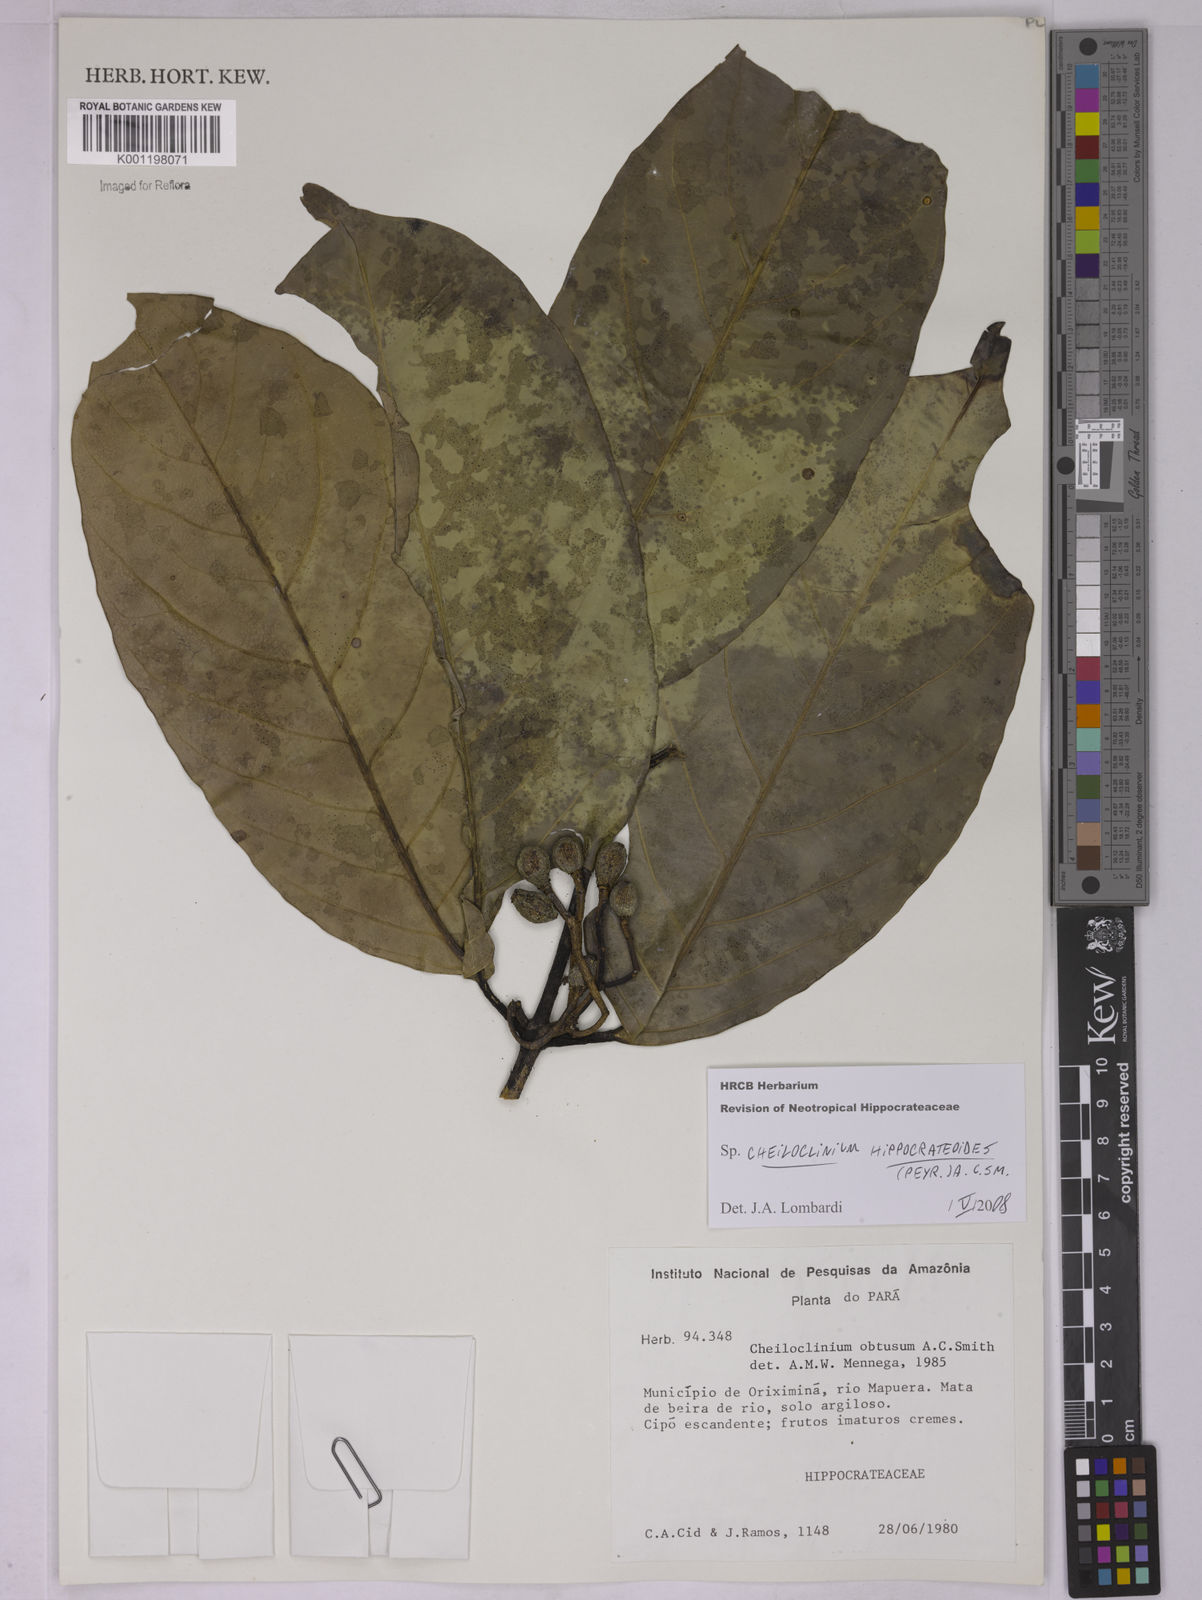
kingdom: Plantae
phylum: Tracheophyta
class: Magnoliopsida
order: Celastrales
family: Celastraceae
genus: Cheiloclinium
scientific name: Cheiloclinium hippocrateoides
